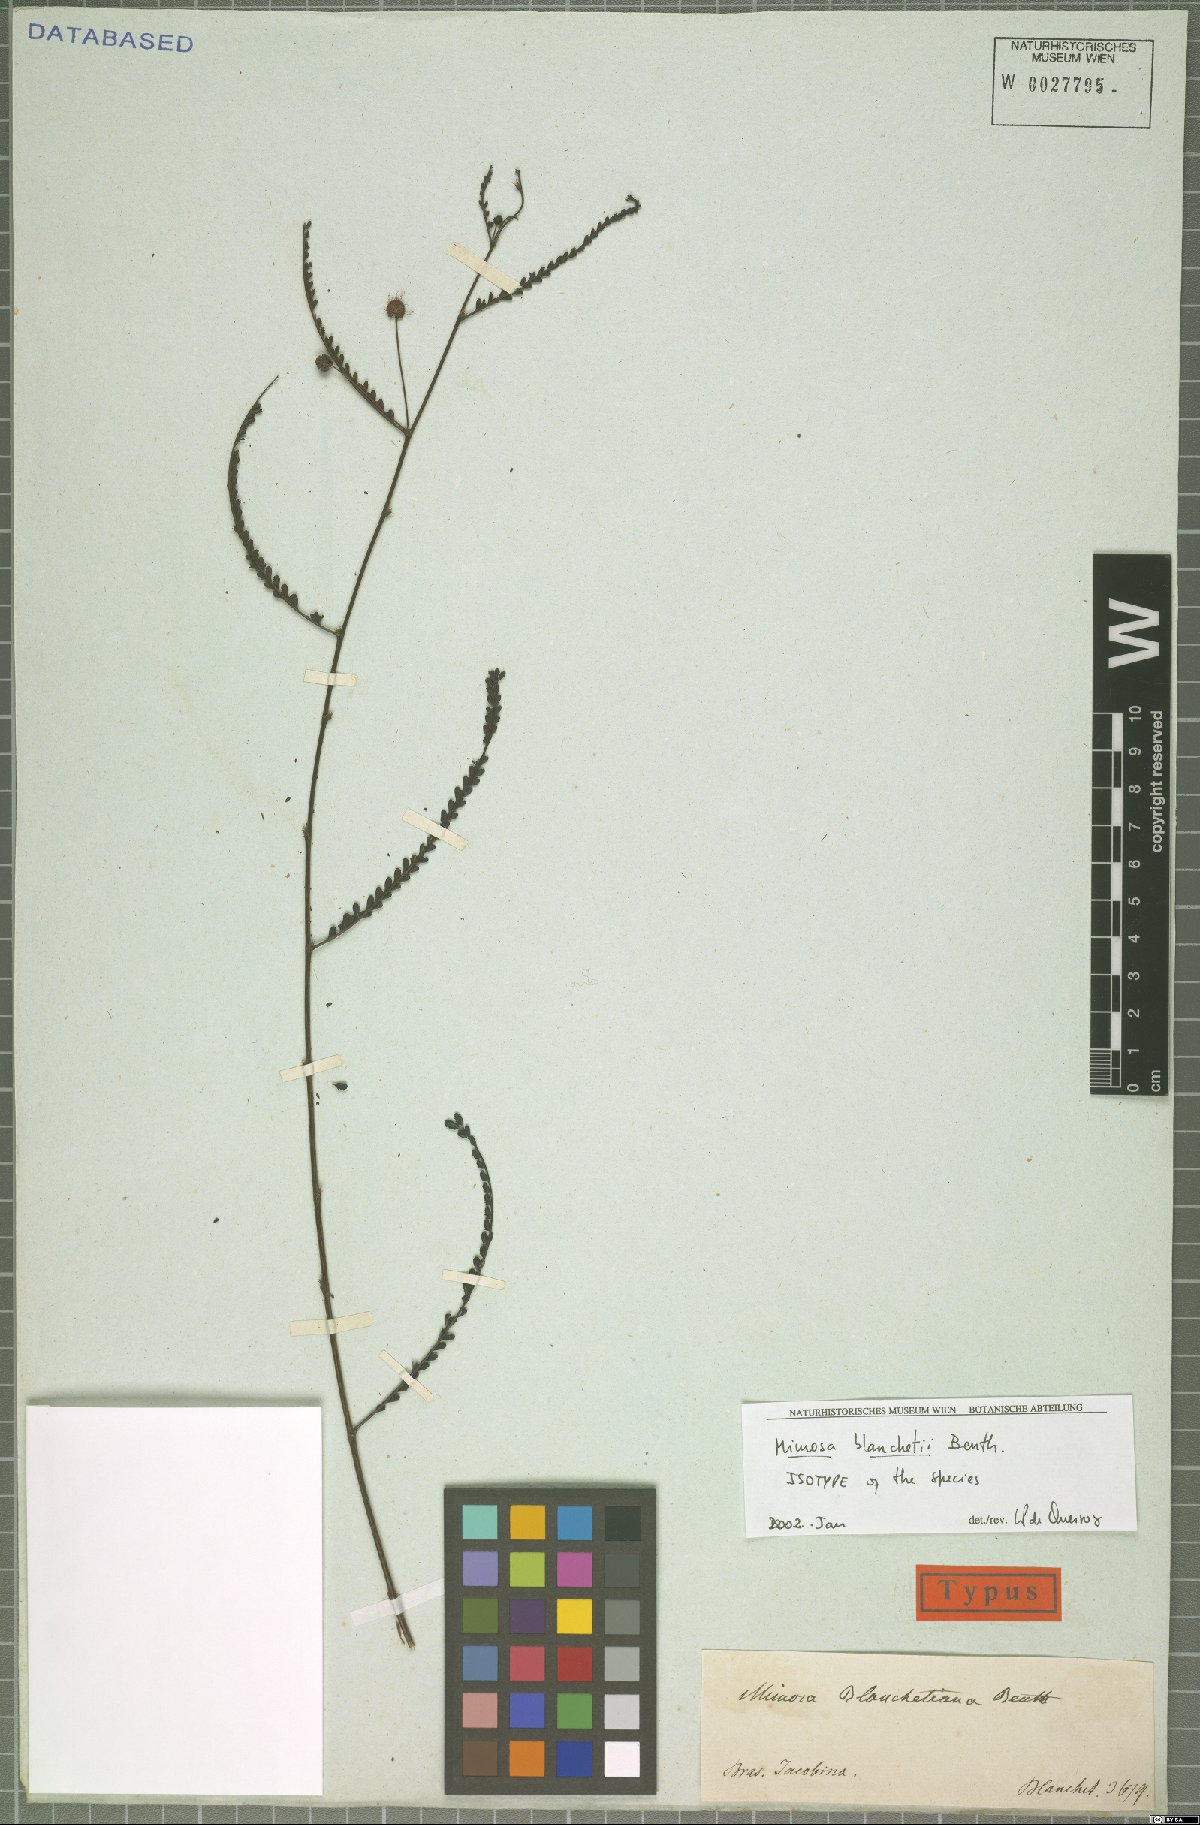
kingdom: Plantae
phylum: Tracheophyta
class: Magnoliopsida
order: Fabales
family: Fabaceae
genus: Mimosa
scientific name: Mimosa blanchetii
